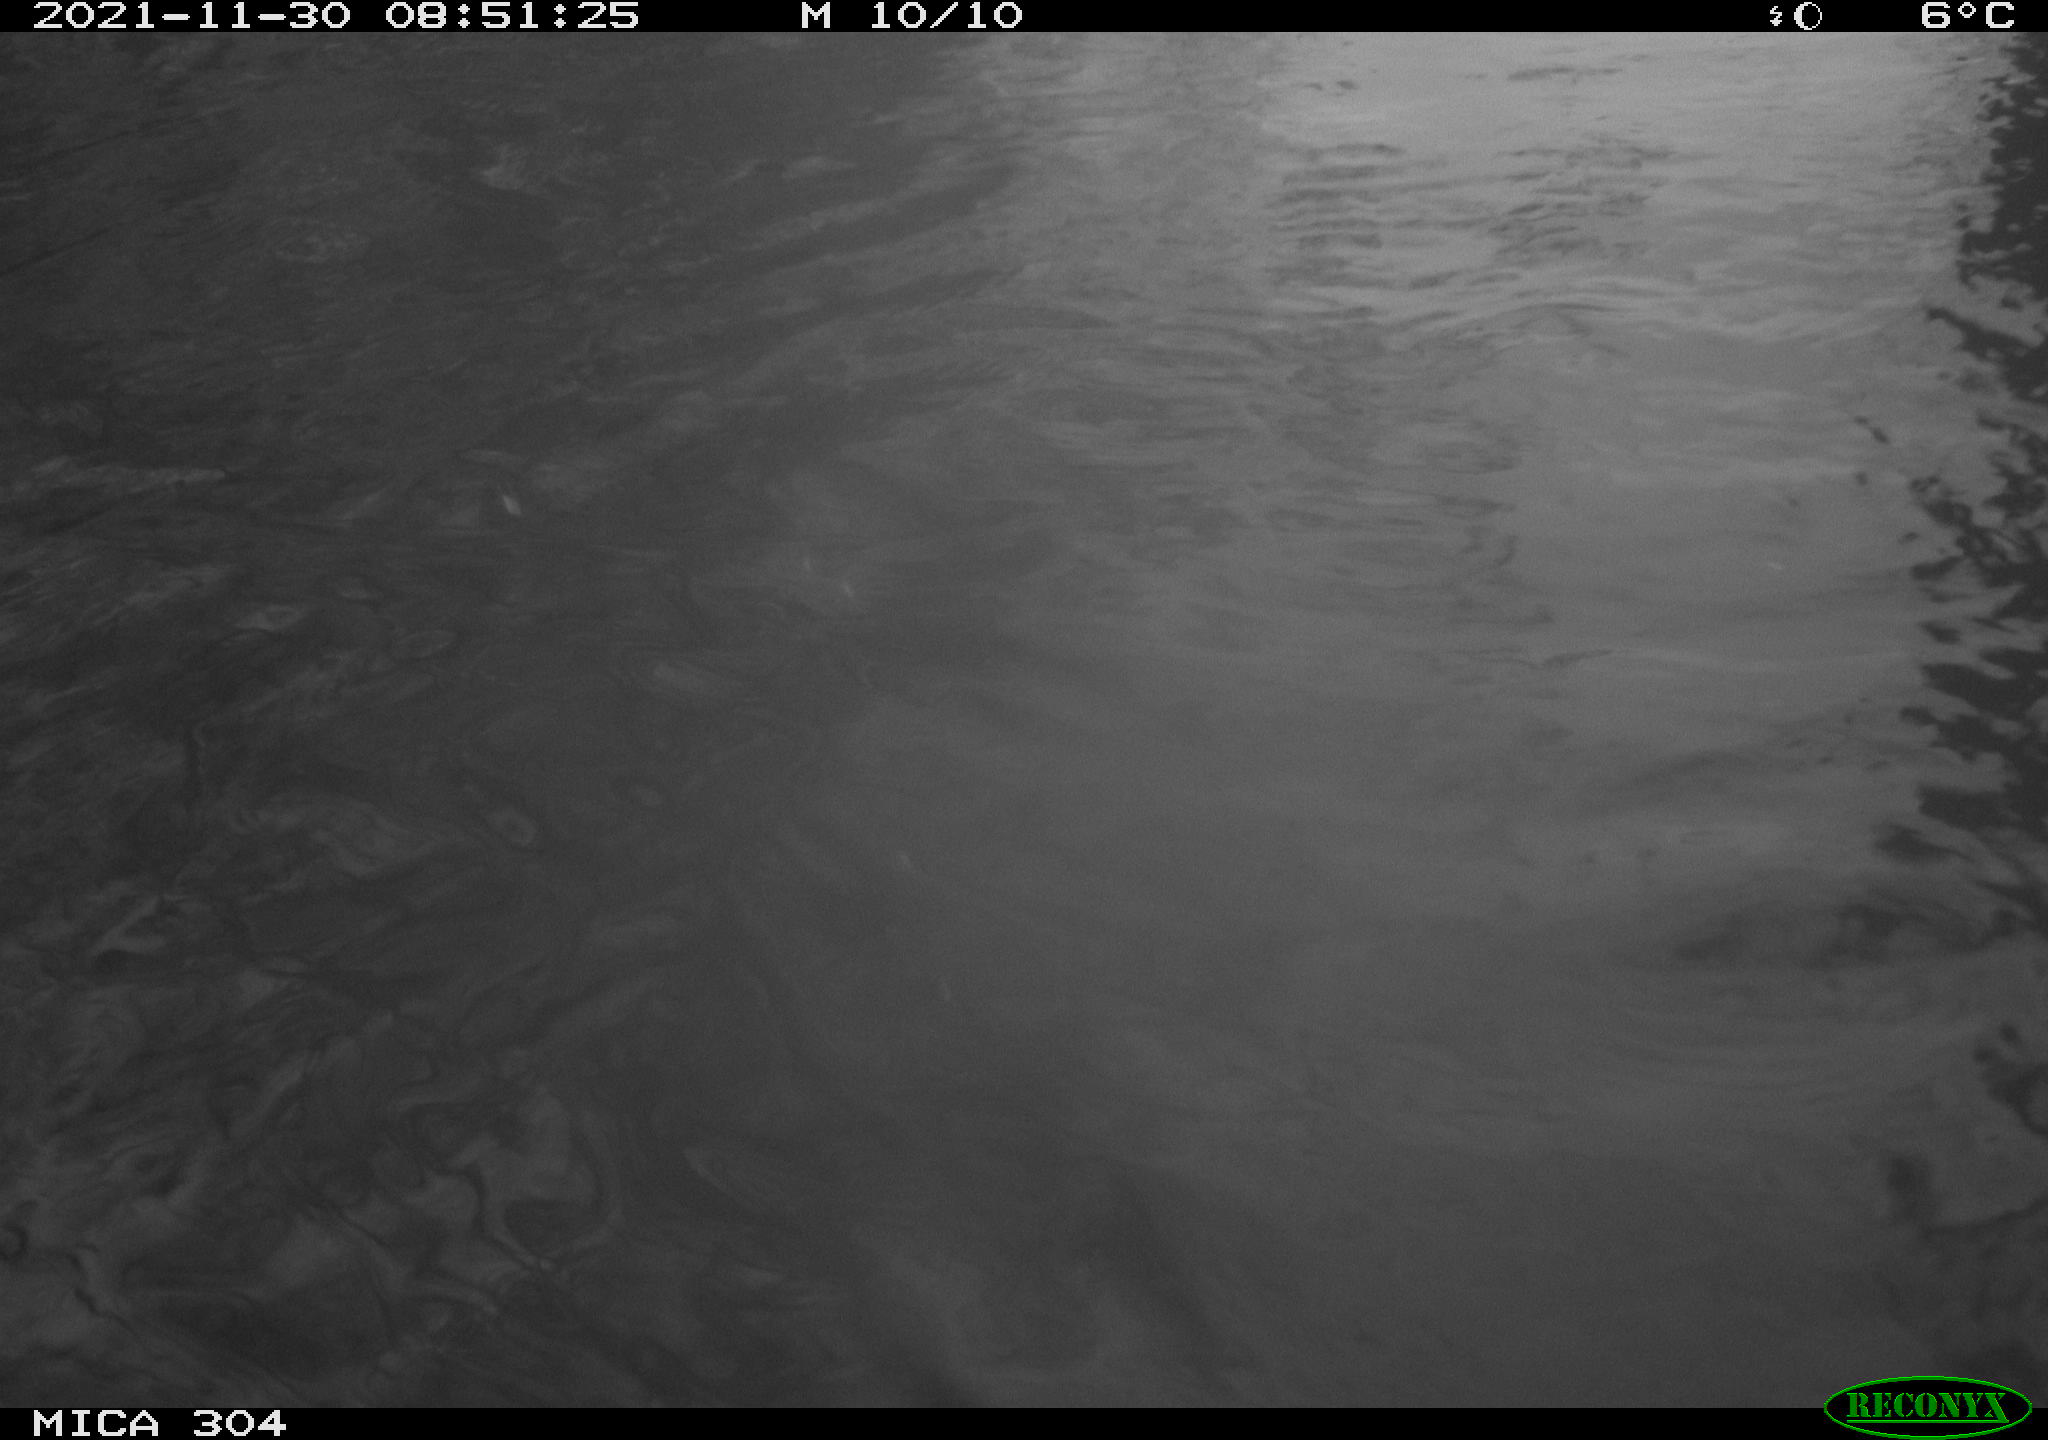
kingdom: Animalia
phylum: Chordata
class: Aves
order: Gruiformes
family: Rallidae
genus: Fulica
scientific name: Fulica atra
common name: Eurasian coot
